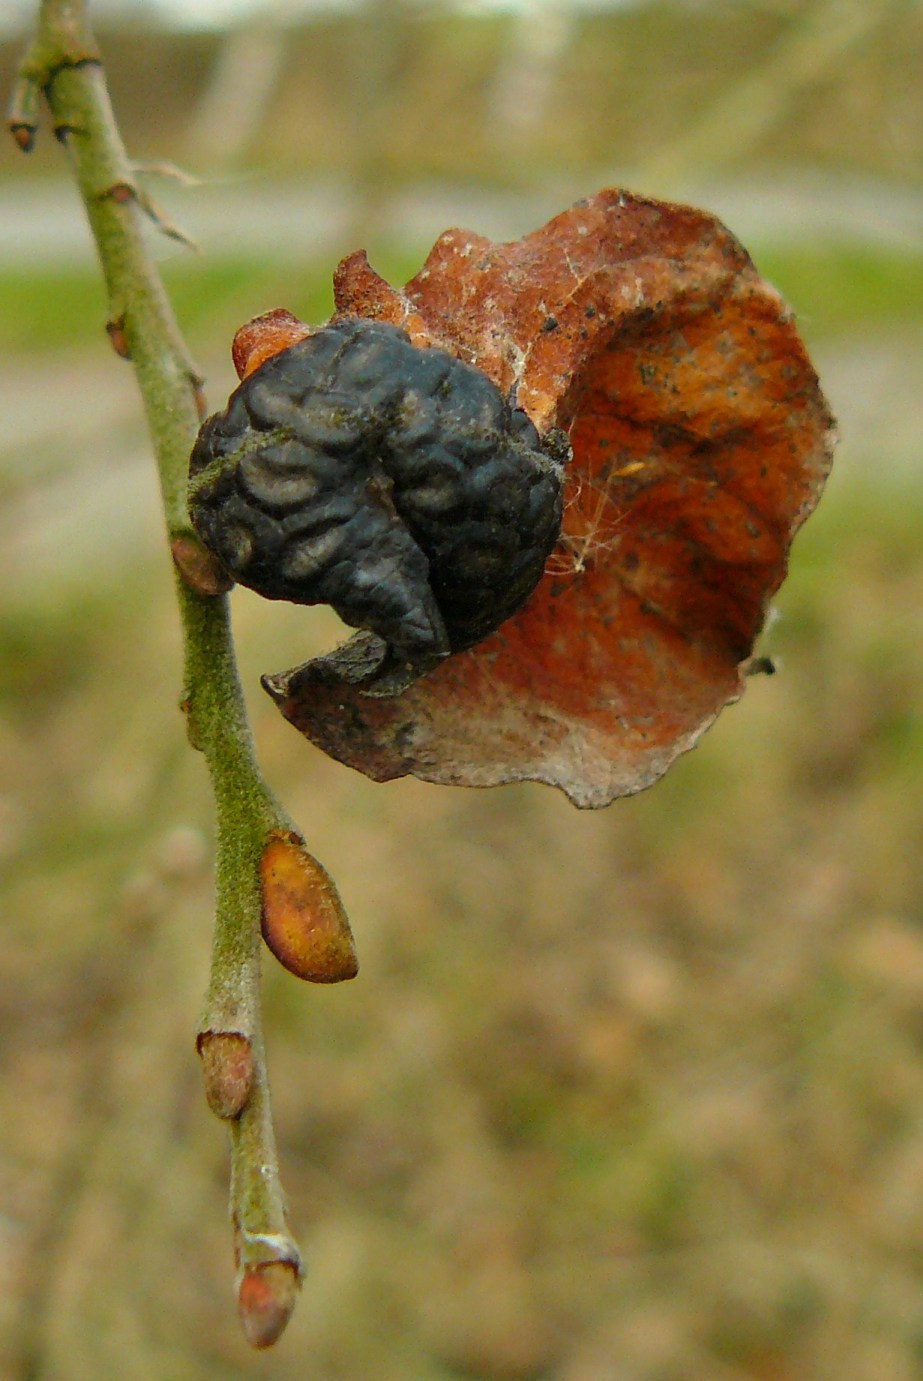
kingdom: Fungi
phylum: Ascomycota
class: Leotiomycetes
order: Rhytismatales
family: Rhytismataceae
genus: Rhytisma
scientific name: Rhytisma salicinum
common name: pile-rynkeplet
